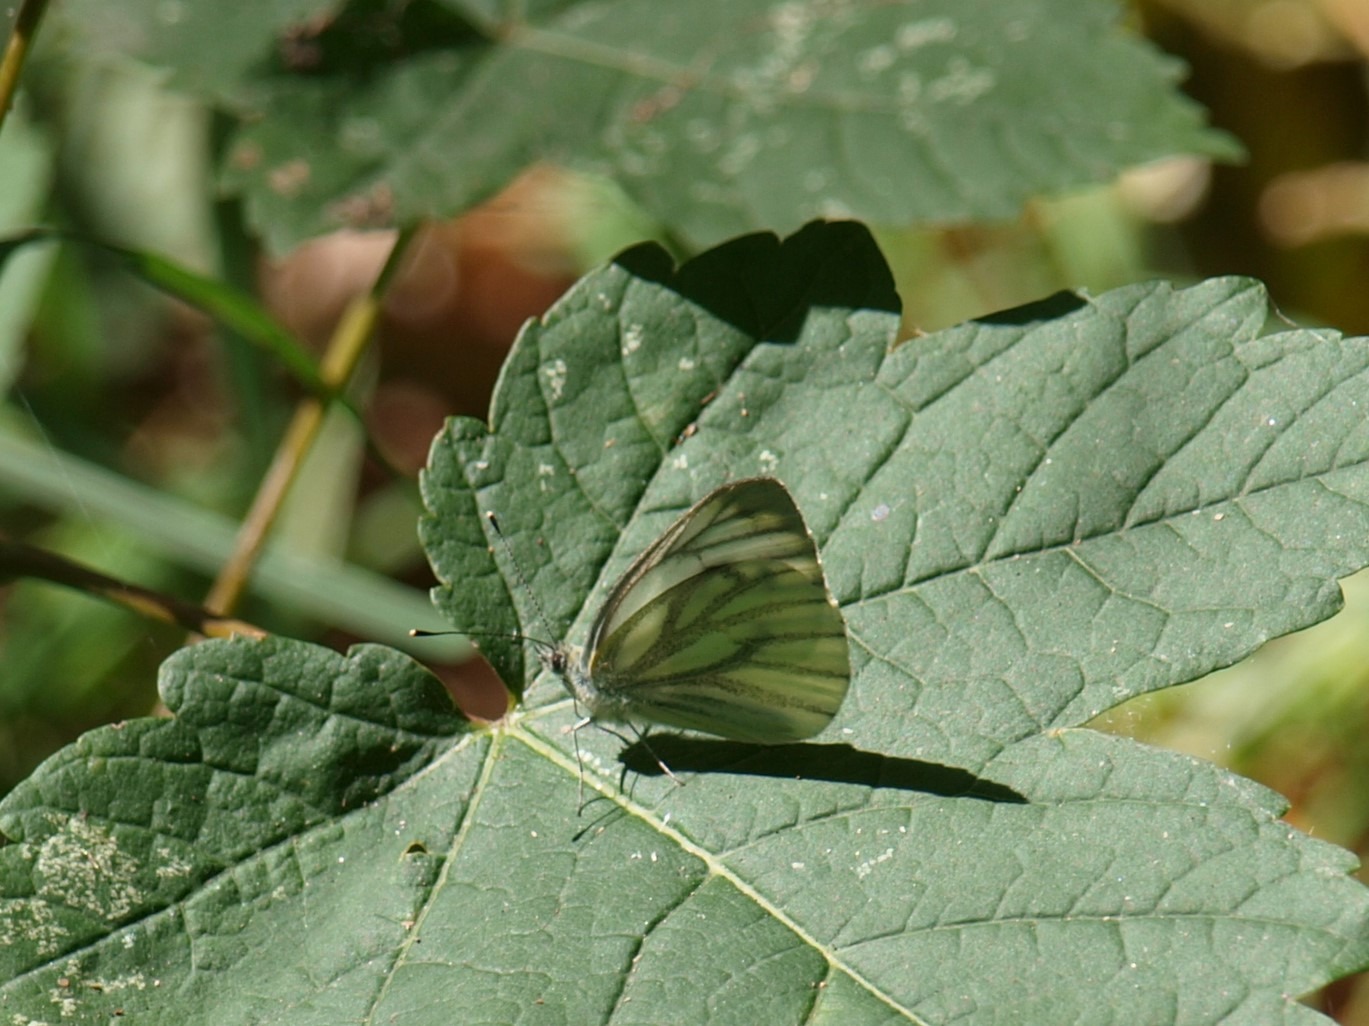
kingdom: Animalia
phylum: Arthropoda
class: Insecta
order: Lepidoptera
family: Pieridae
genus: Pieris
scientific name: Pieris napi
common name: Grønåret kålsommerfugl
